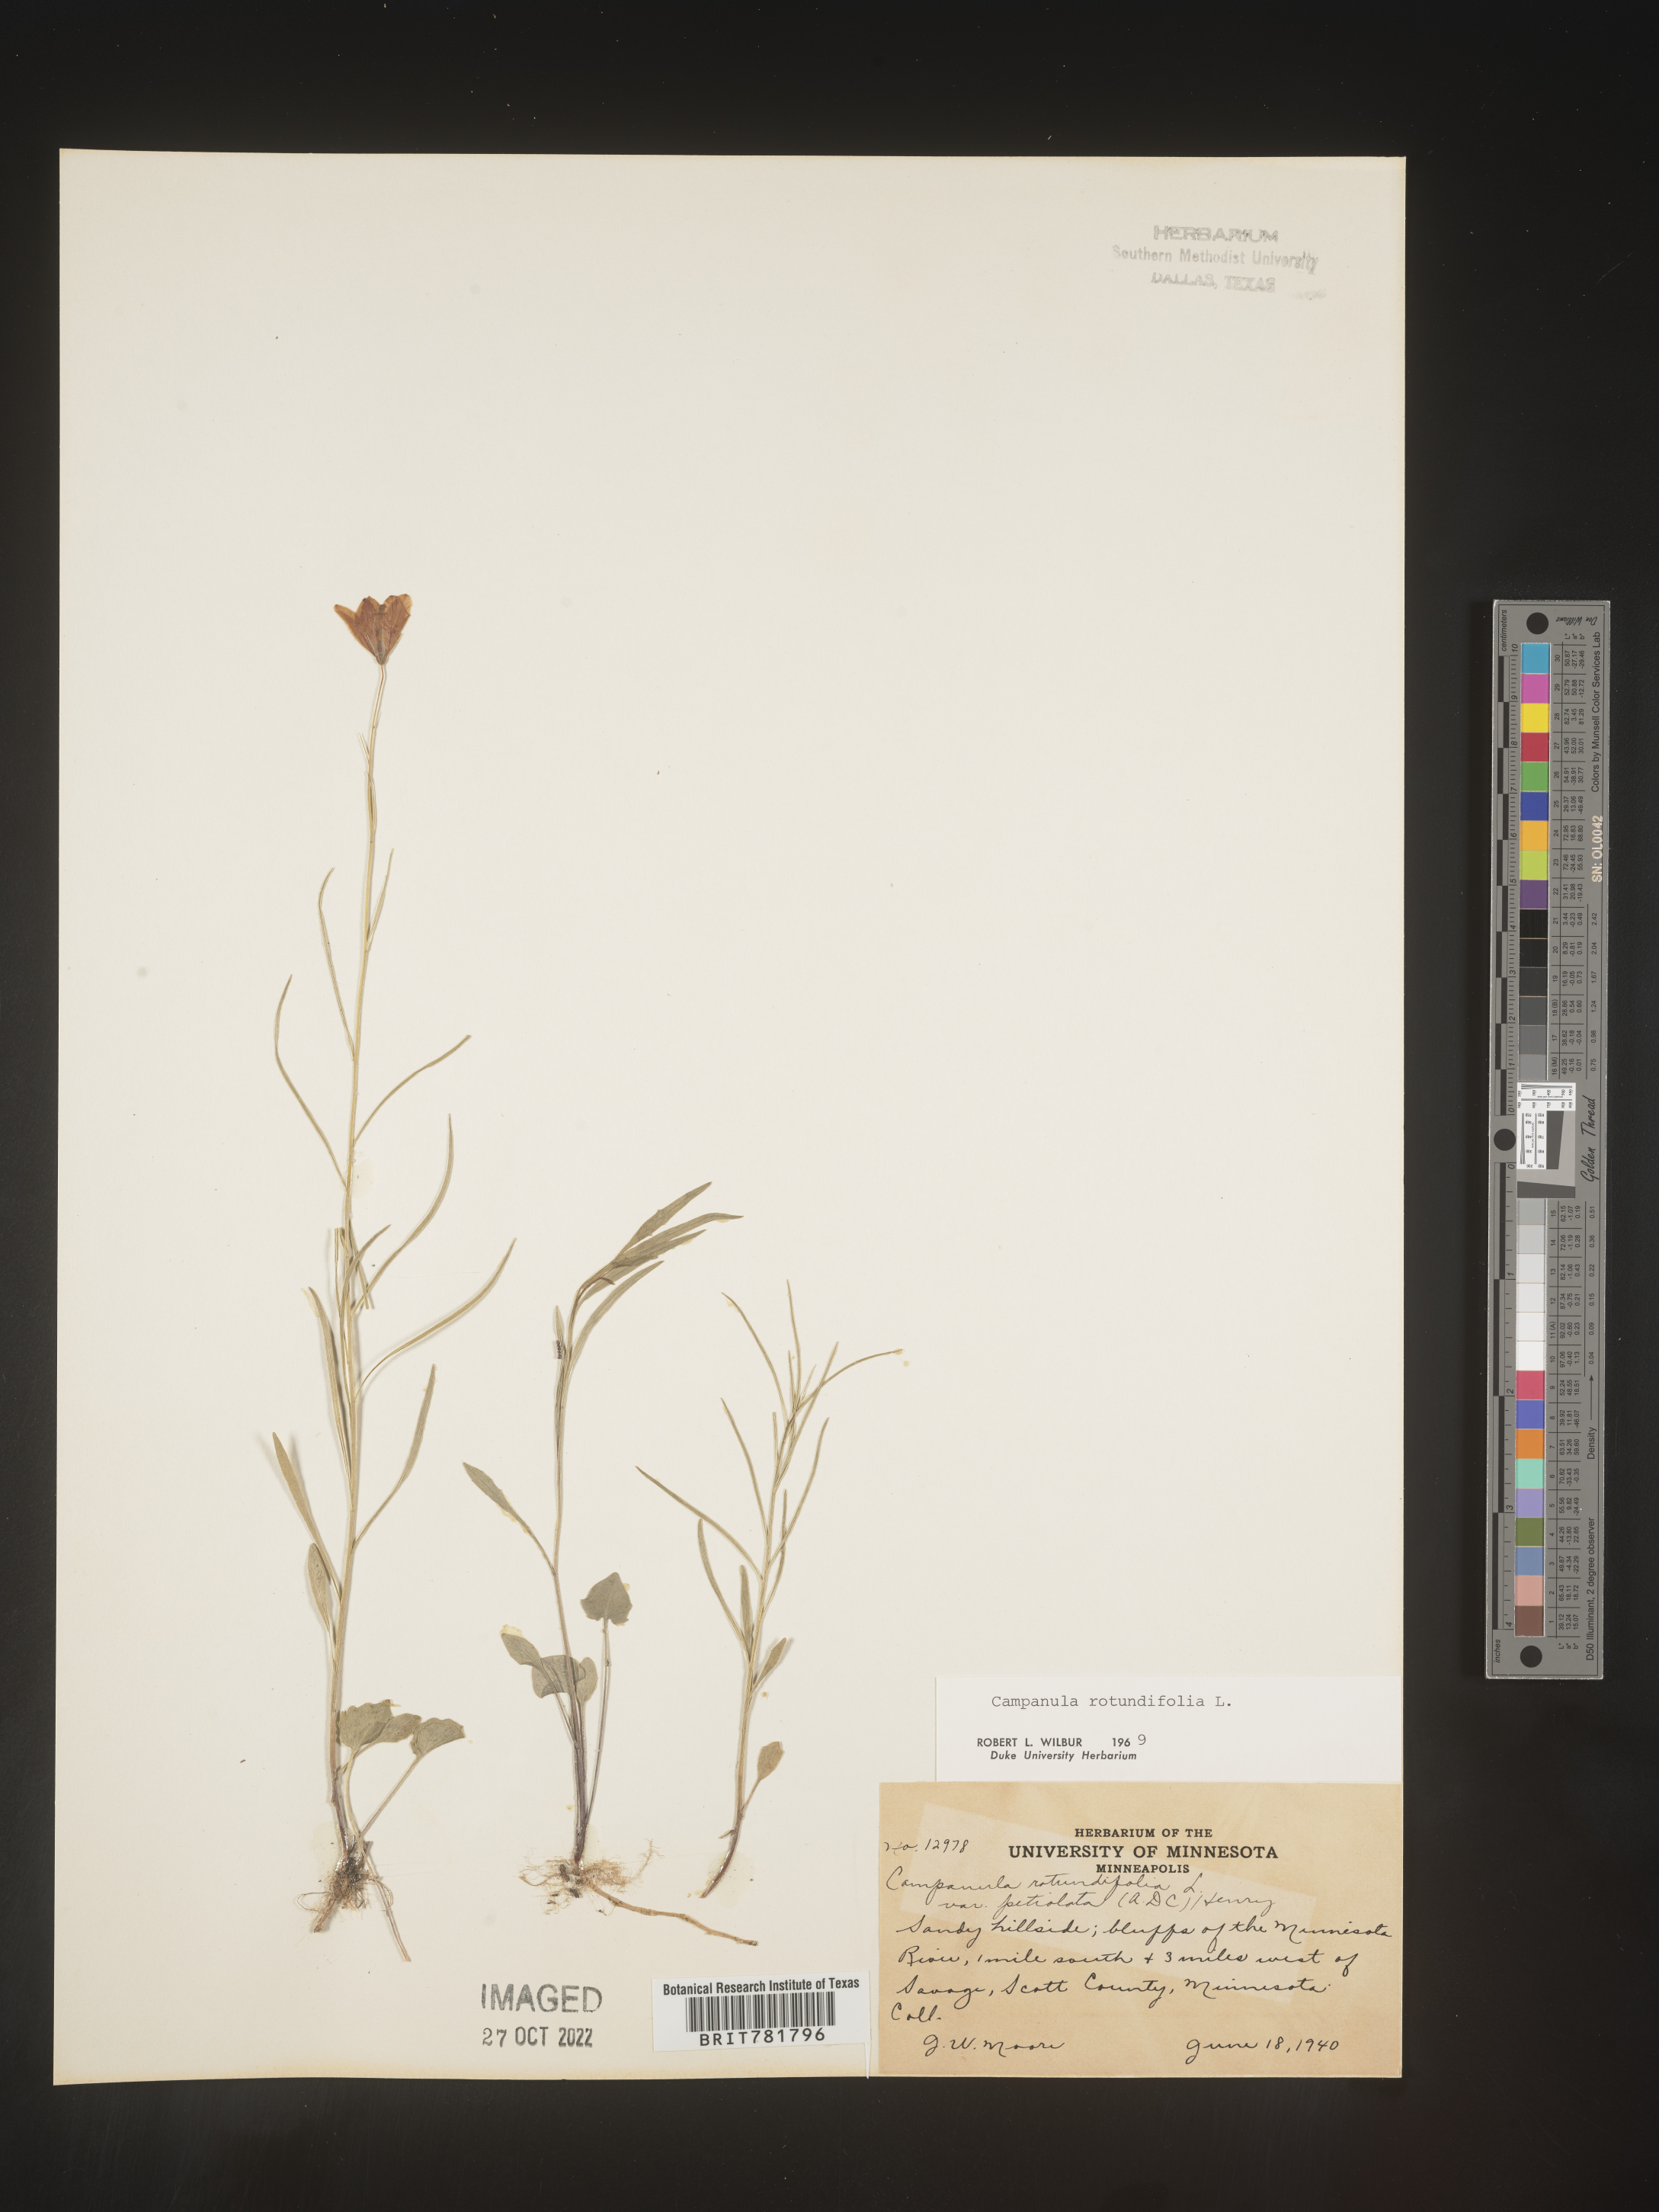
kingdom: Plantae
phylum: Tracheophyta
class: Magnoliopsida
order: Asterales
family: Campanulaceae
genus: Campanula
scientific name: Campanula rotundifolia
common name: Harebell
